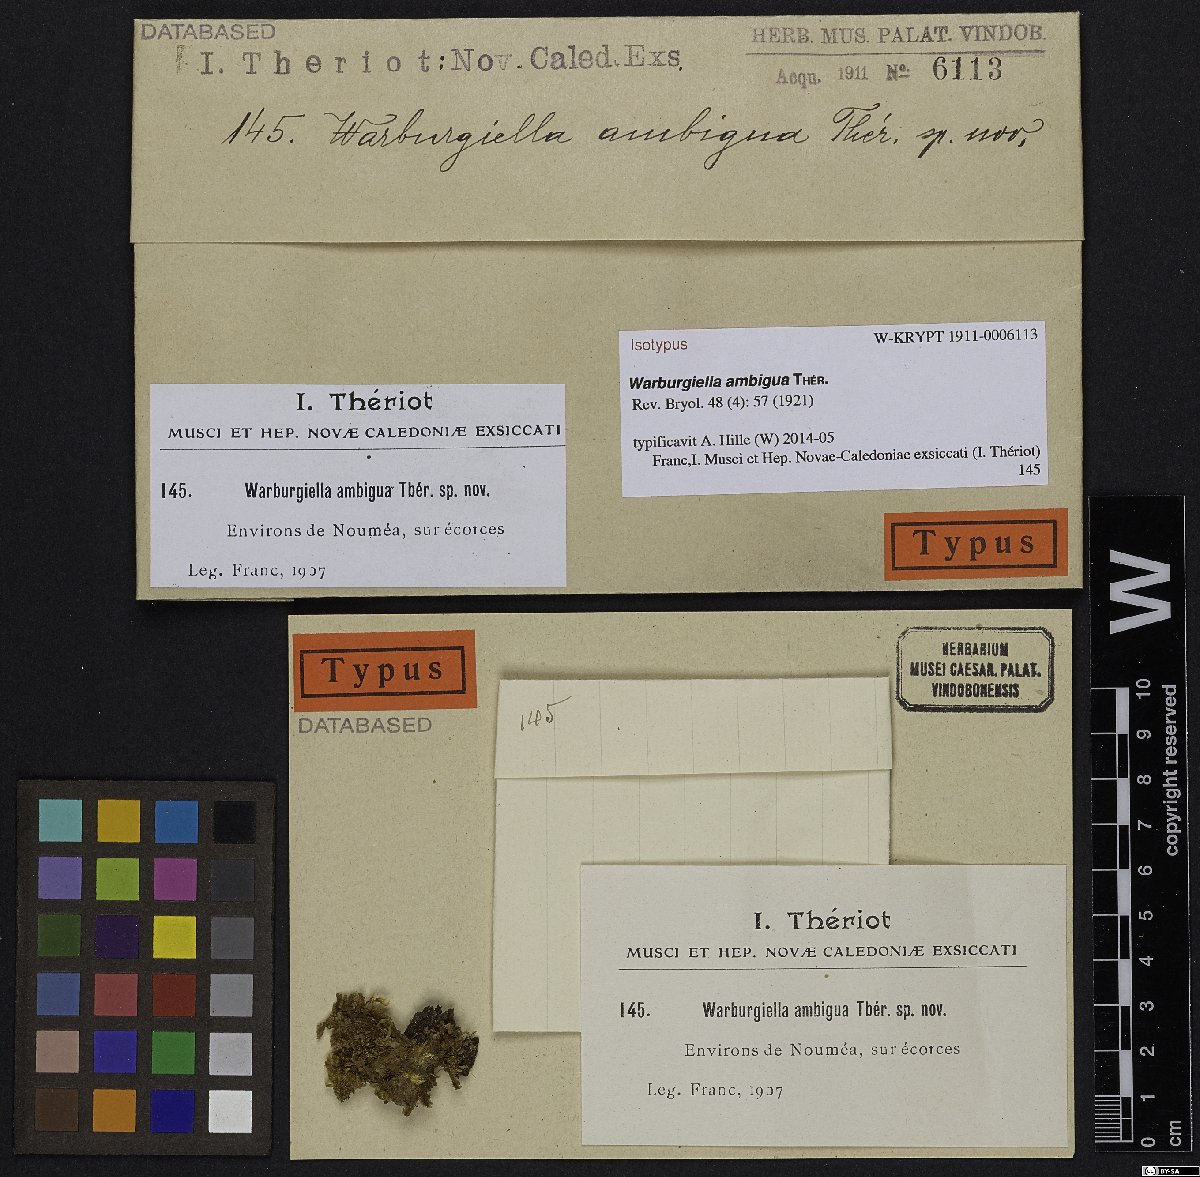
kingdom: Plantae
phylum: Bryophyta
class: Bryopsida
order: Hypnales
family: Sematophyllaceae
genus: Warburgiella
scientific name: Warburgiella leptocarpos
